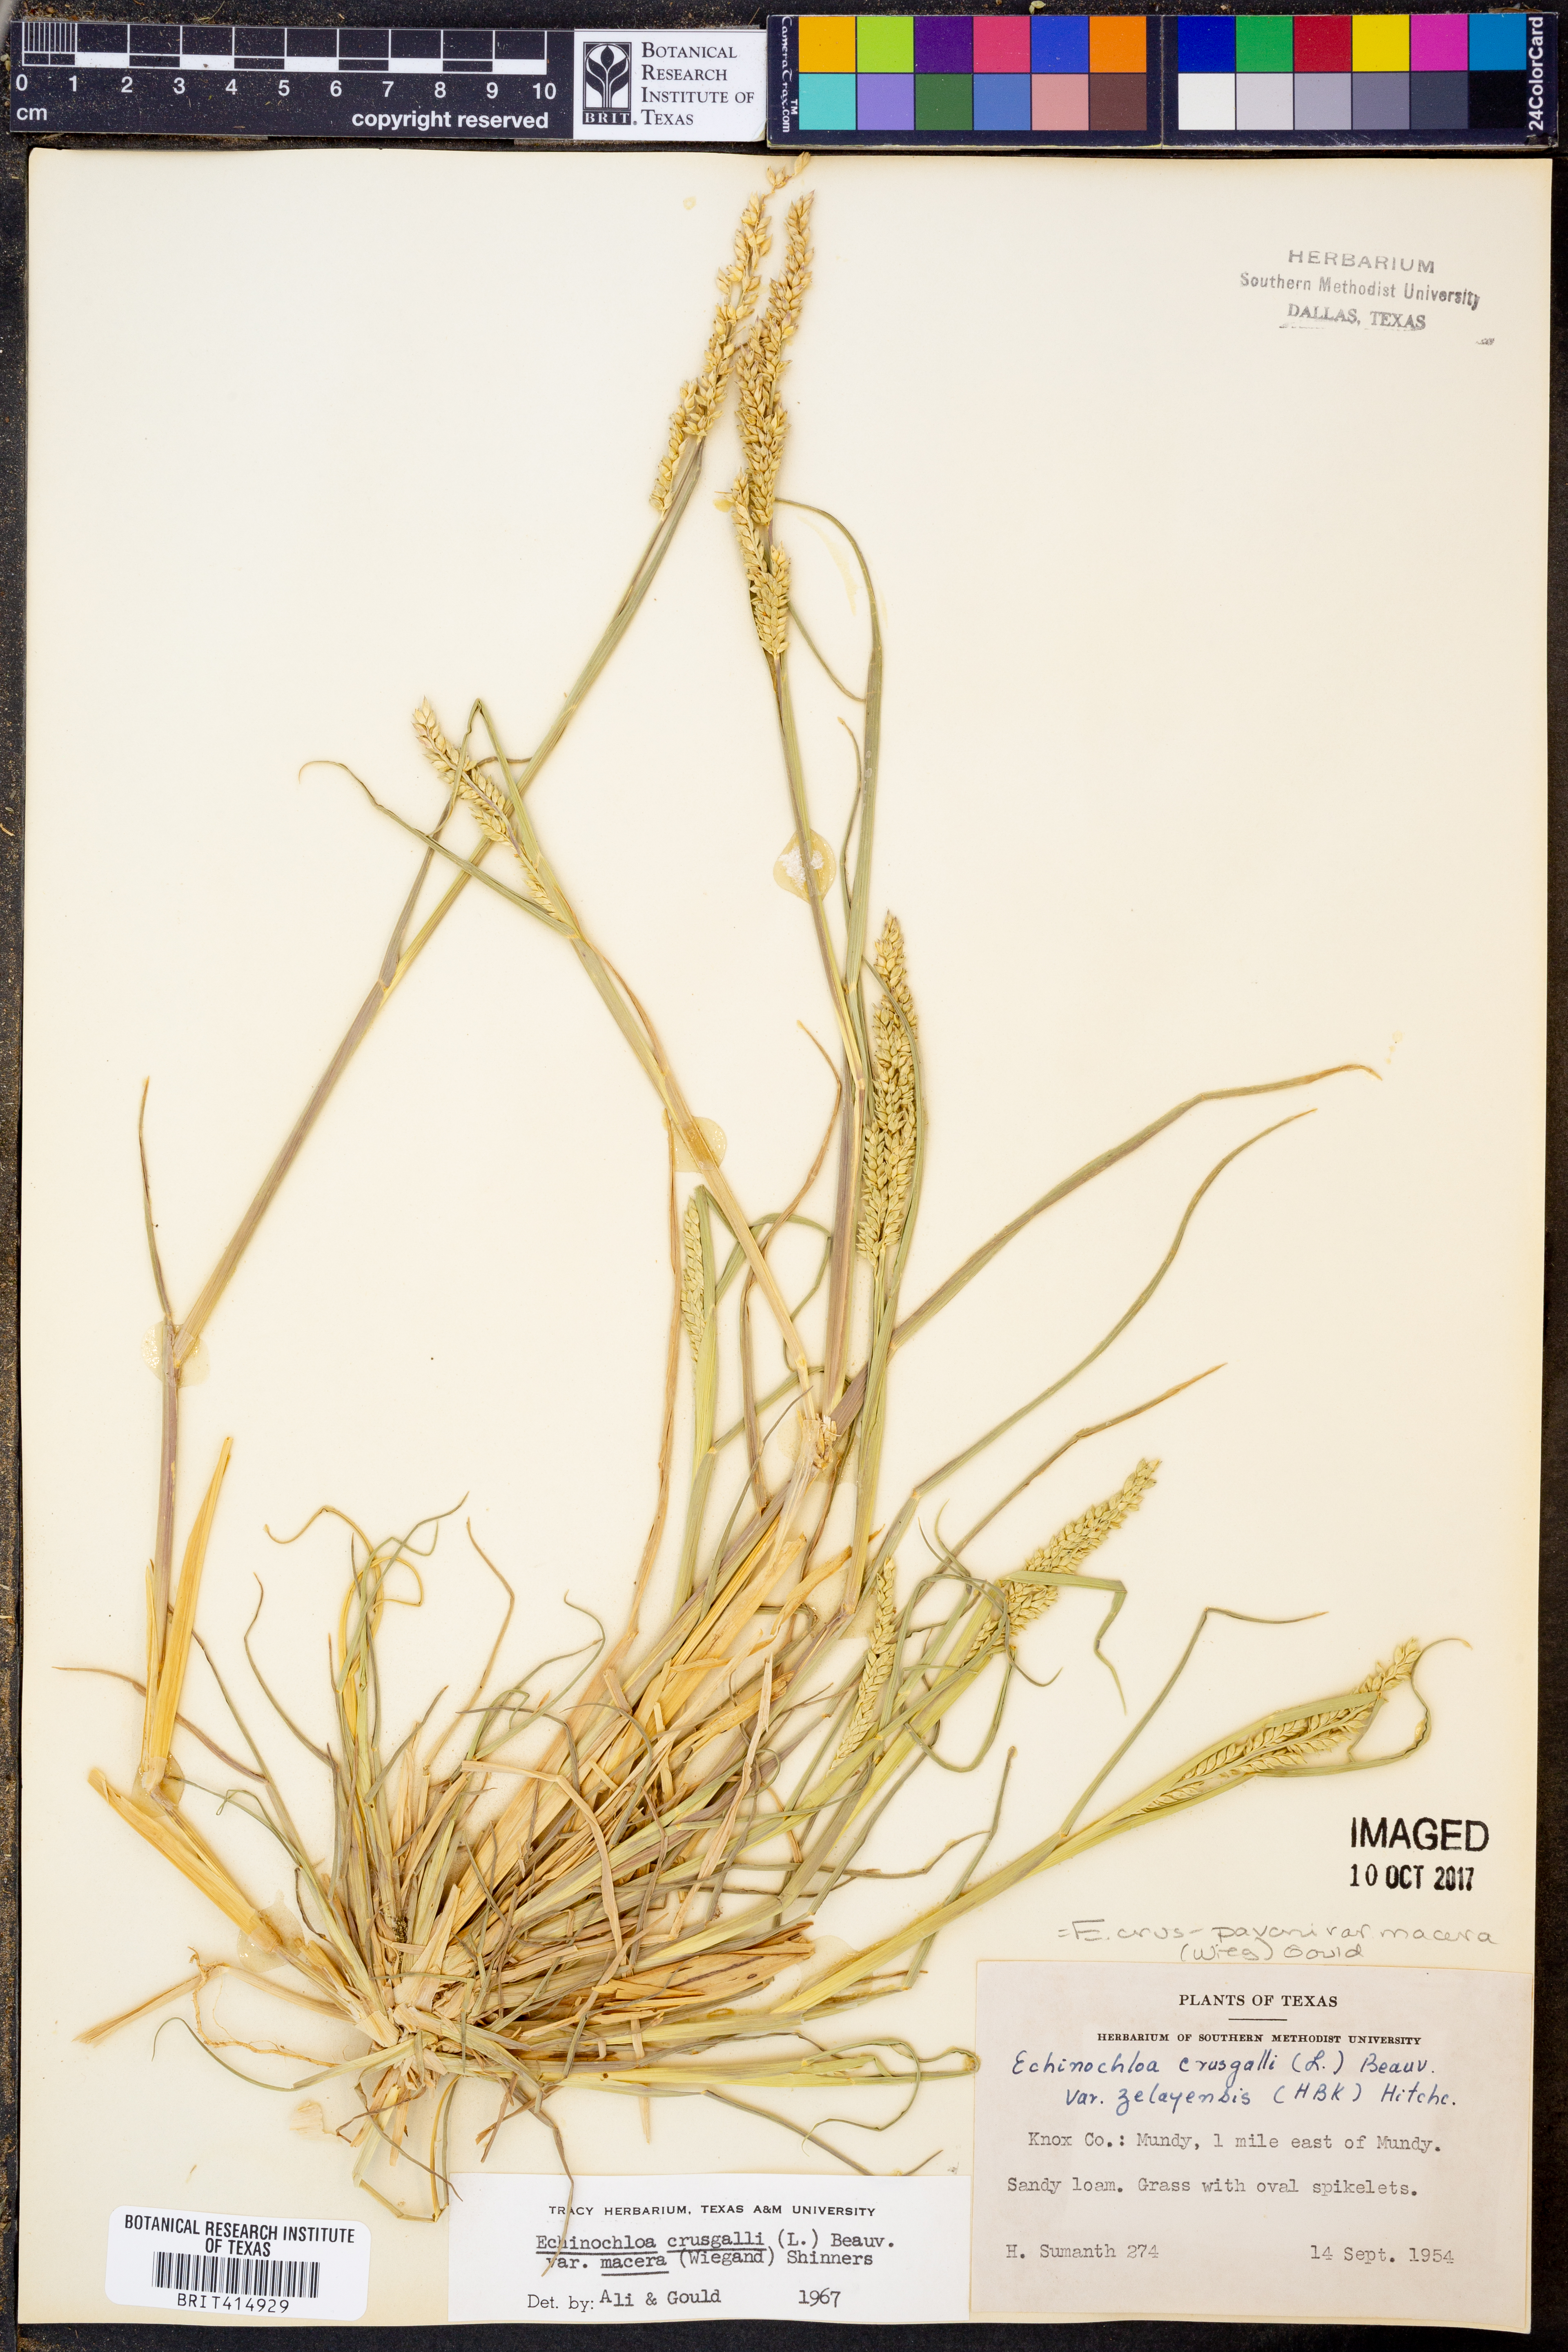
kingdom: Plantae
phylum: Tracheophyta
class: Liliopsida
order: Poales
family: Poaceae
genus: Echinochloa
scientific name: Echinochloa crus-pavonis
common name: Gulf cockspur grass
